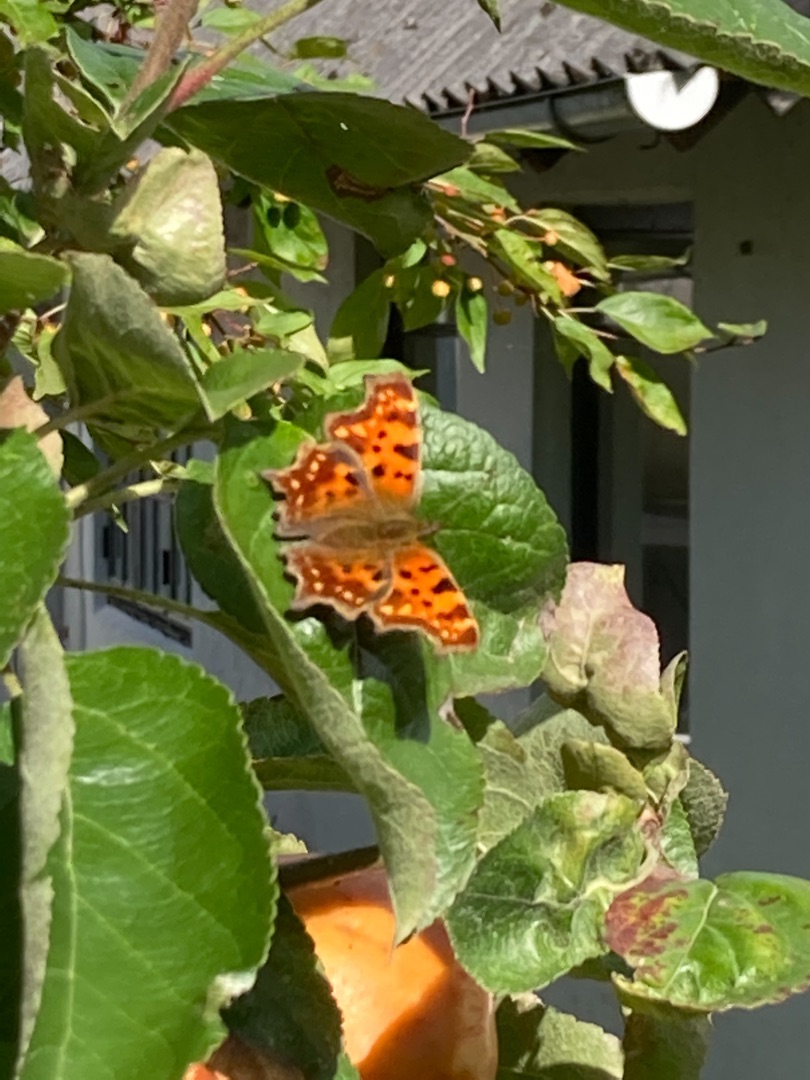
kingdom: Animalia
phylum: Arthropoda
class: Insecta
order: Lepidoptera
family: Nymphalidae
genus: Polygonia
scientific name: Polygonia c-album
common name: Det hvide C
